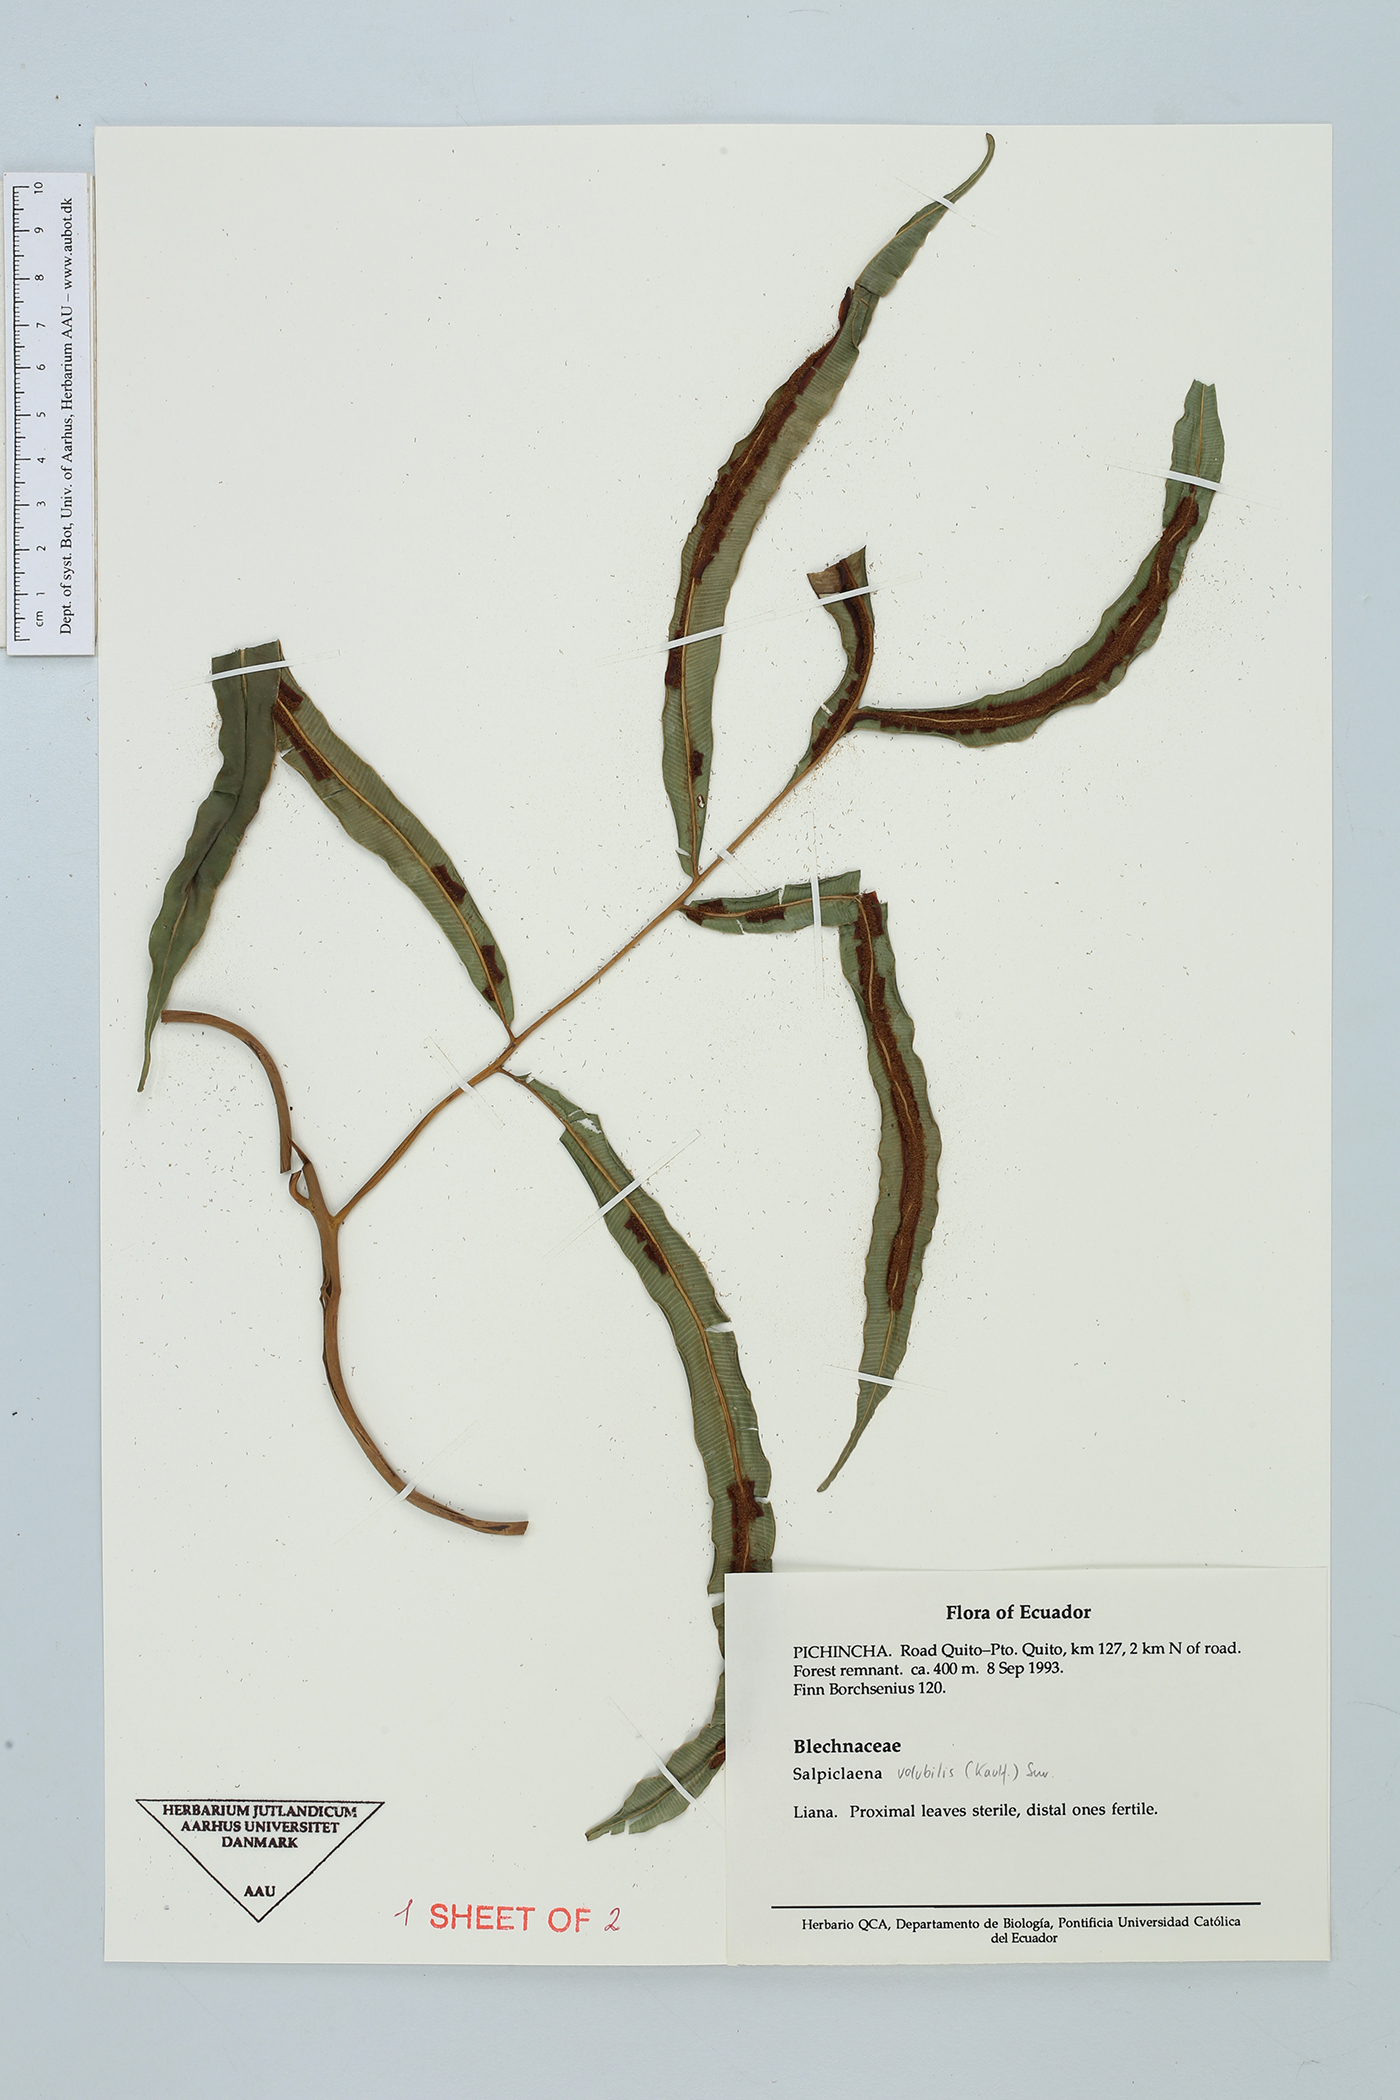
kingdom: Plantae
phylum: Tracheophyta
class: Polypodiopsida
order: Polypodiales
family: Blechnaceae
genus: Salpichlaena
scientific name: Salpichlaena volubilis
